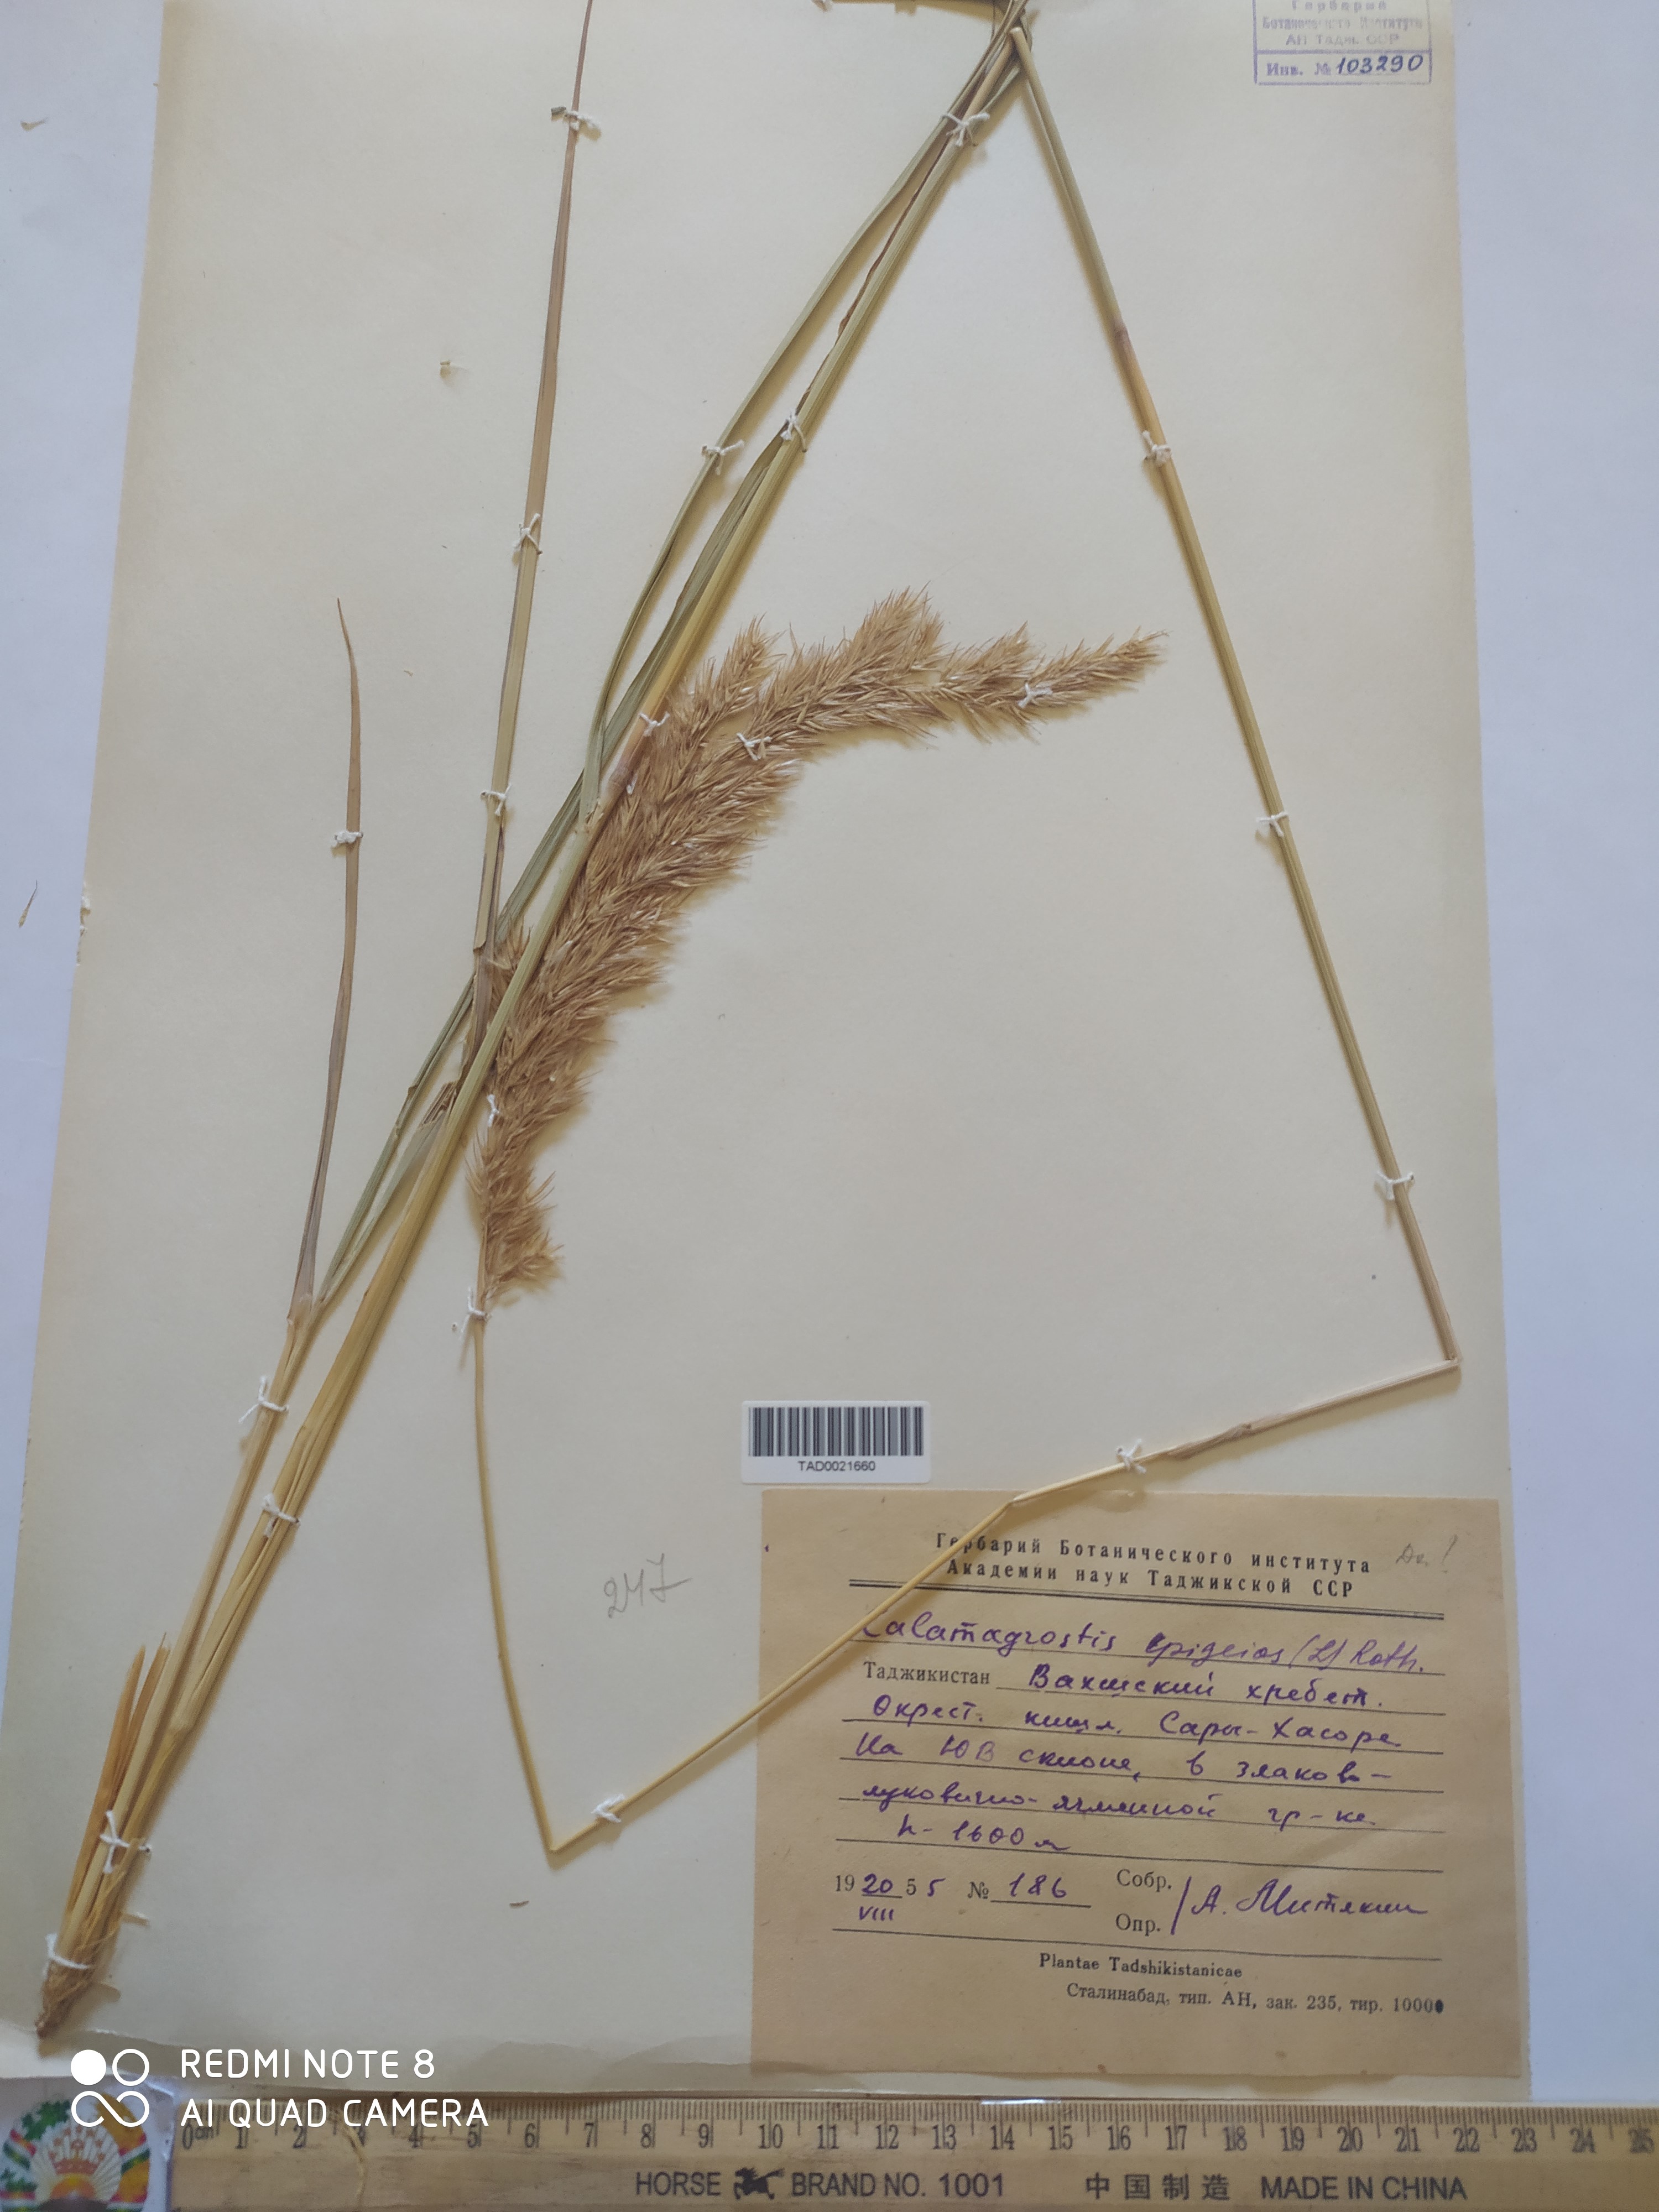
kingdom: Plantae
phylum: Tracheophyta
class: Liliopsida
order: Poales
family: Poaceae
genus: Calamagrostis
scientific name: Calamagrostis epigejos
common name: Wood small-reed
